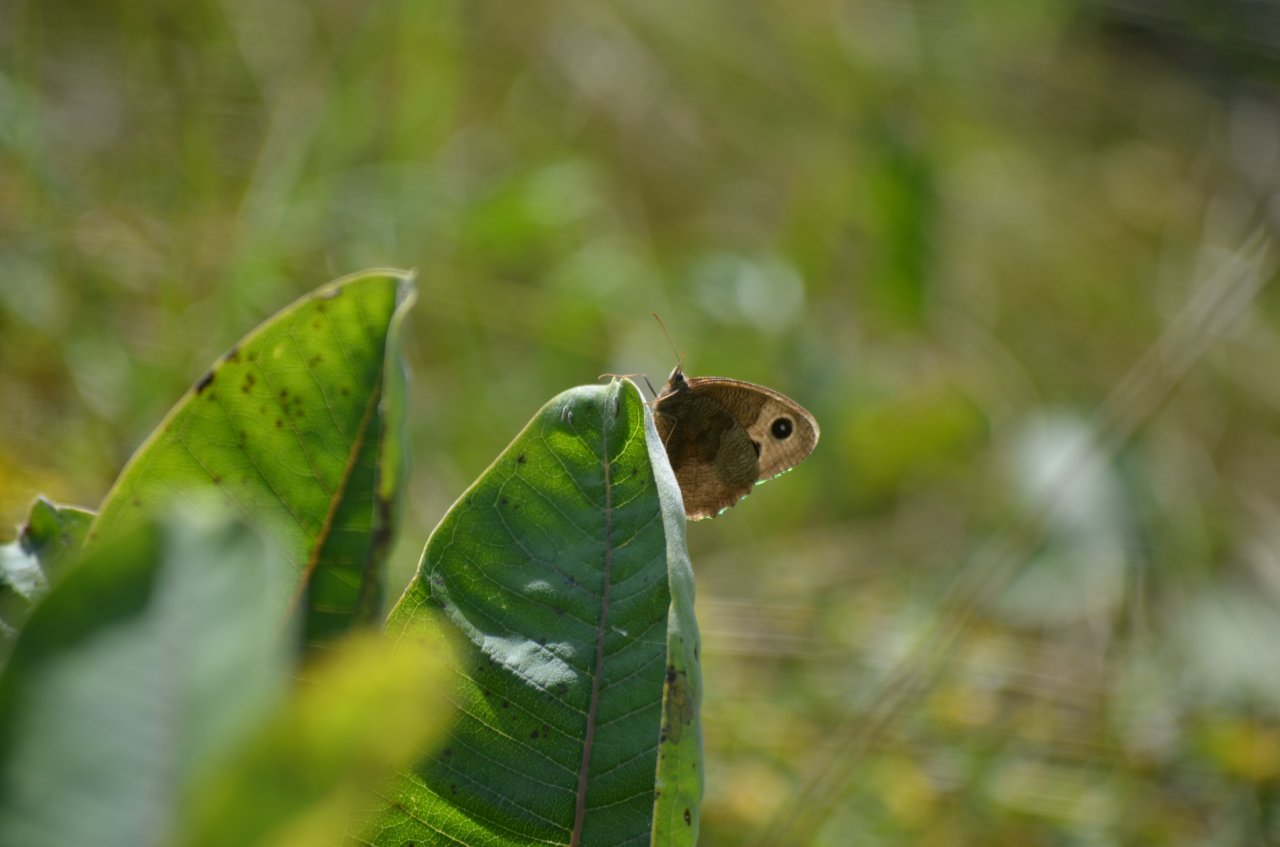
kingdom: Animalia
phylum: Arthropoda
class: Insecta
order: Lepidoptera
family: Nymphalidae
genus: Cercyonis
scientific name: Cercyonis pegala
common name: Common Wood-Nymph
